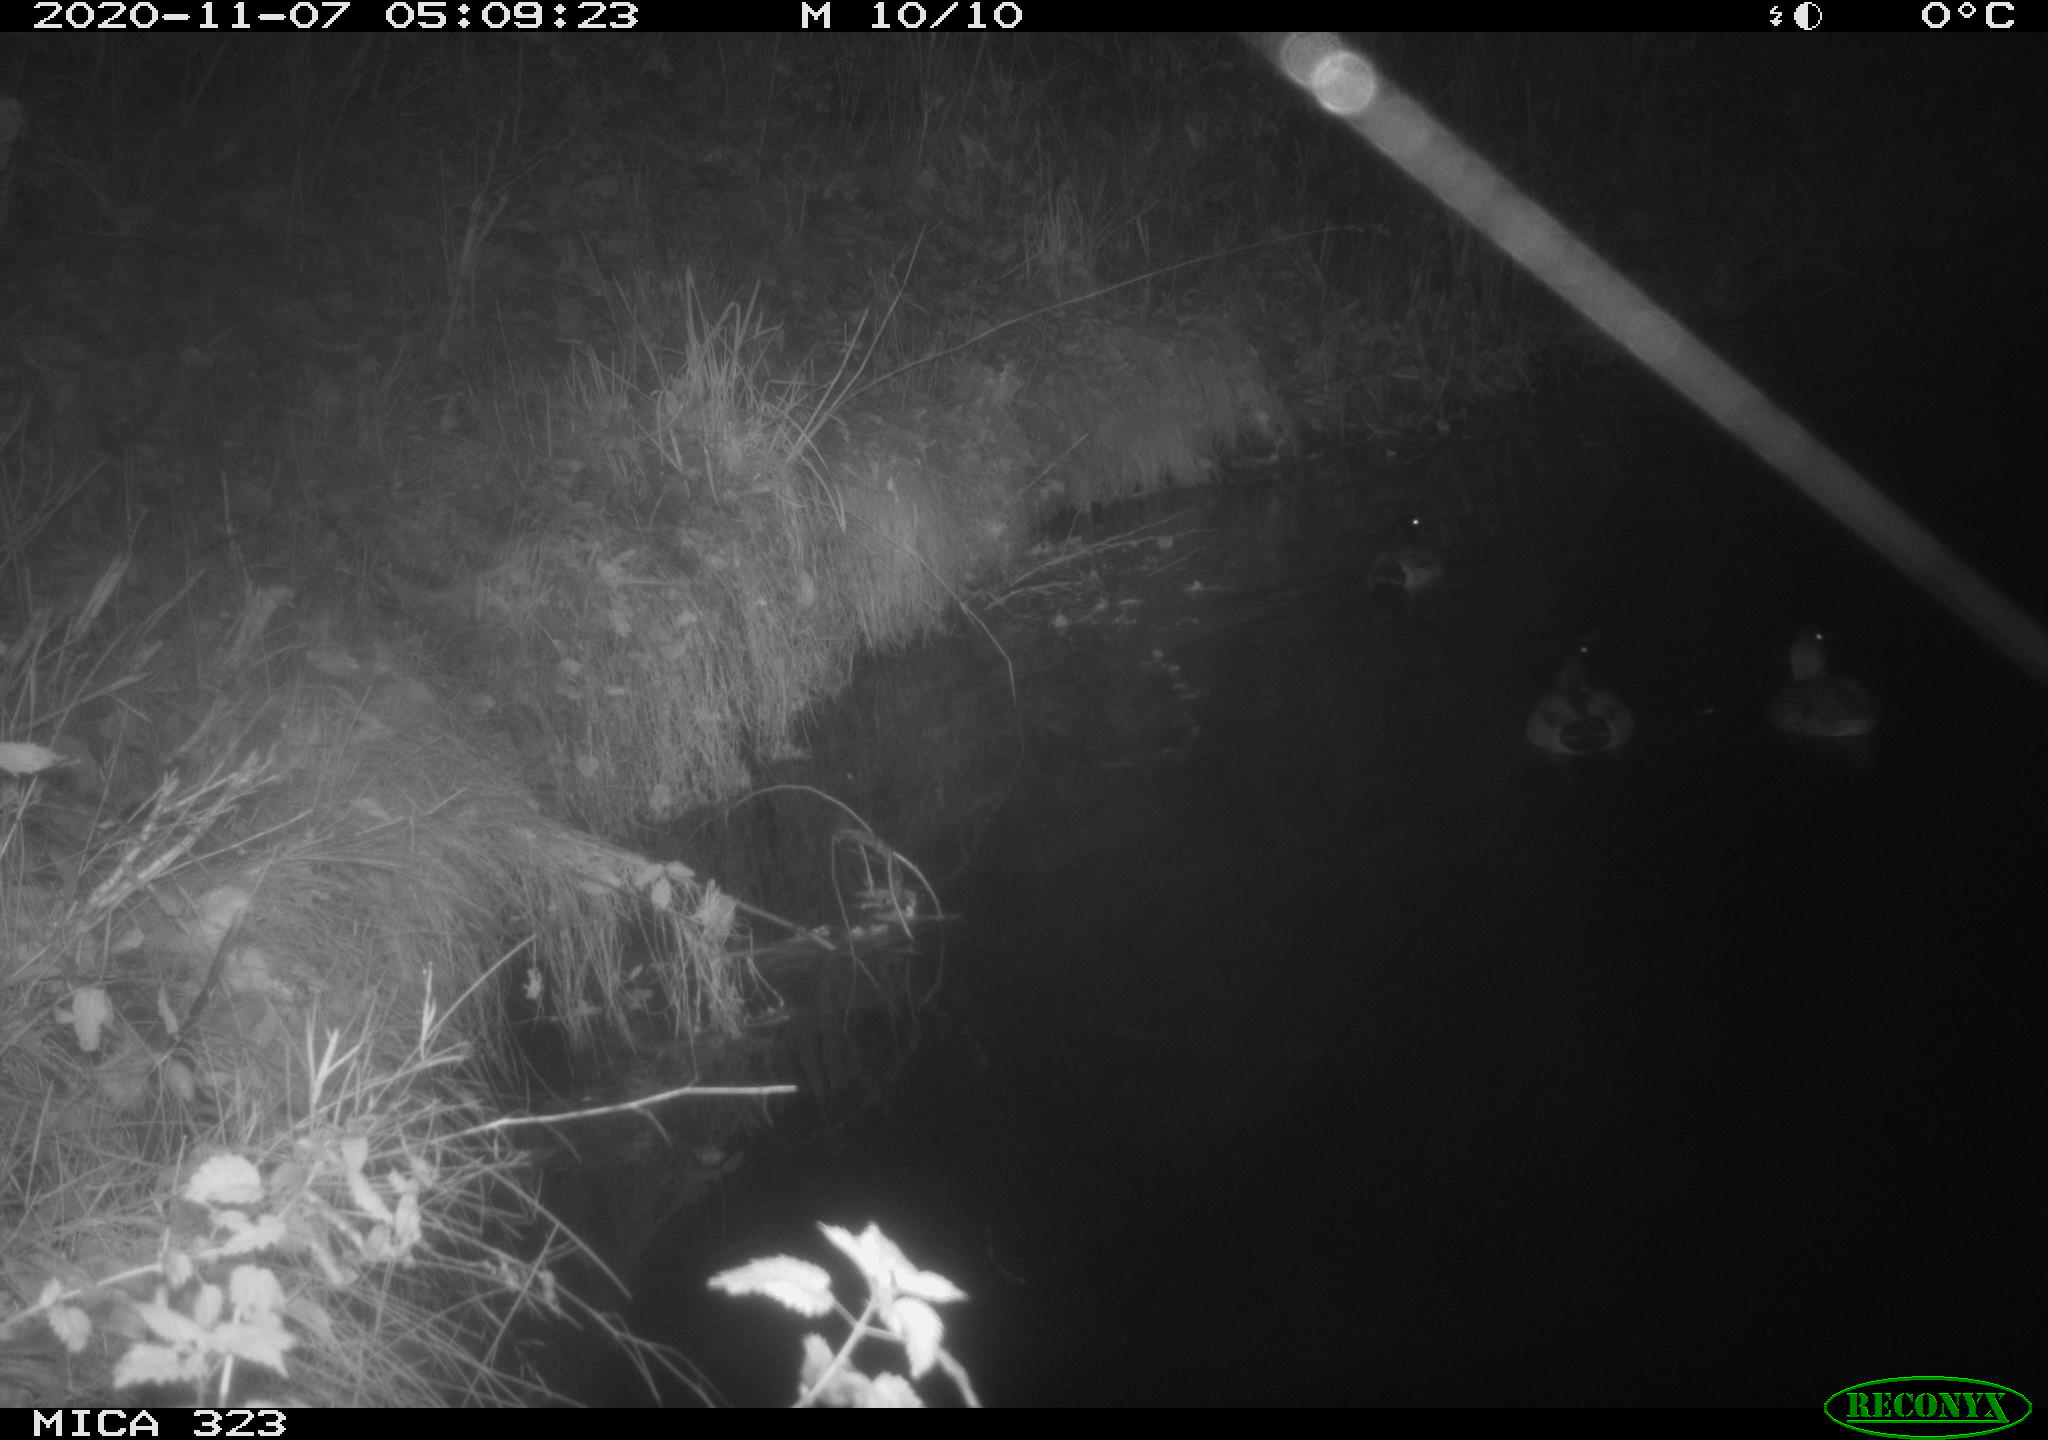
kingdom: Animalia
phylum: Chordata
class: Aves
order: Anseriformes
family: Anatidae
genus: Anas
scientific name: Anas platyrhynchos
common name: Mallard
